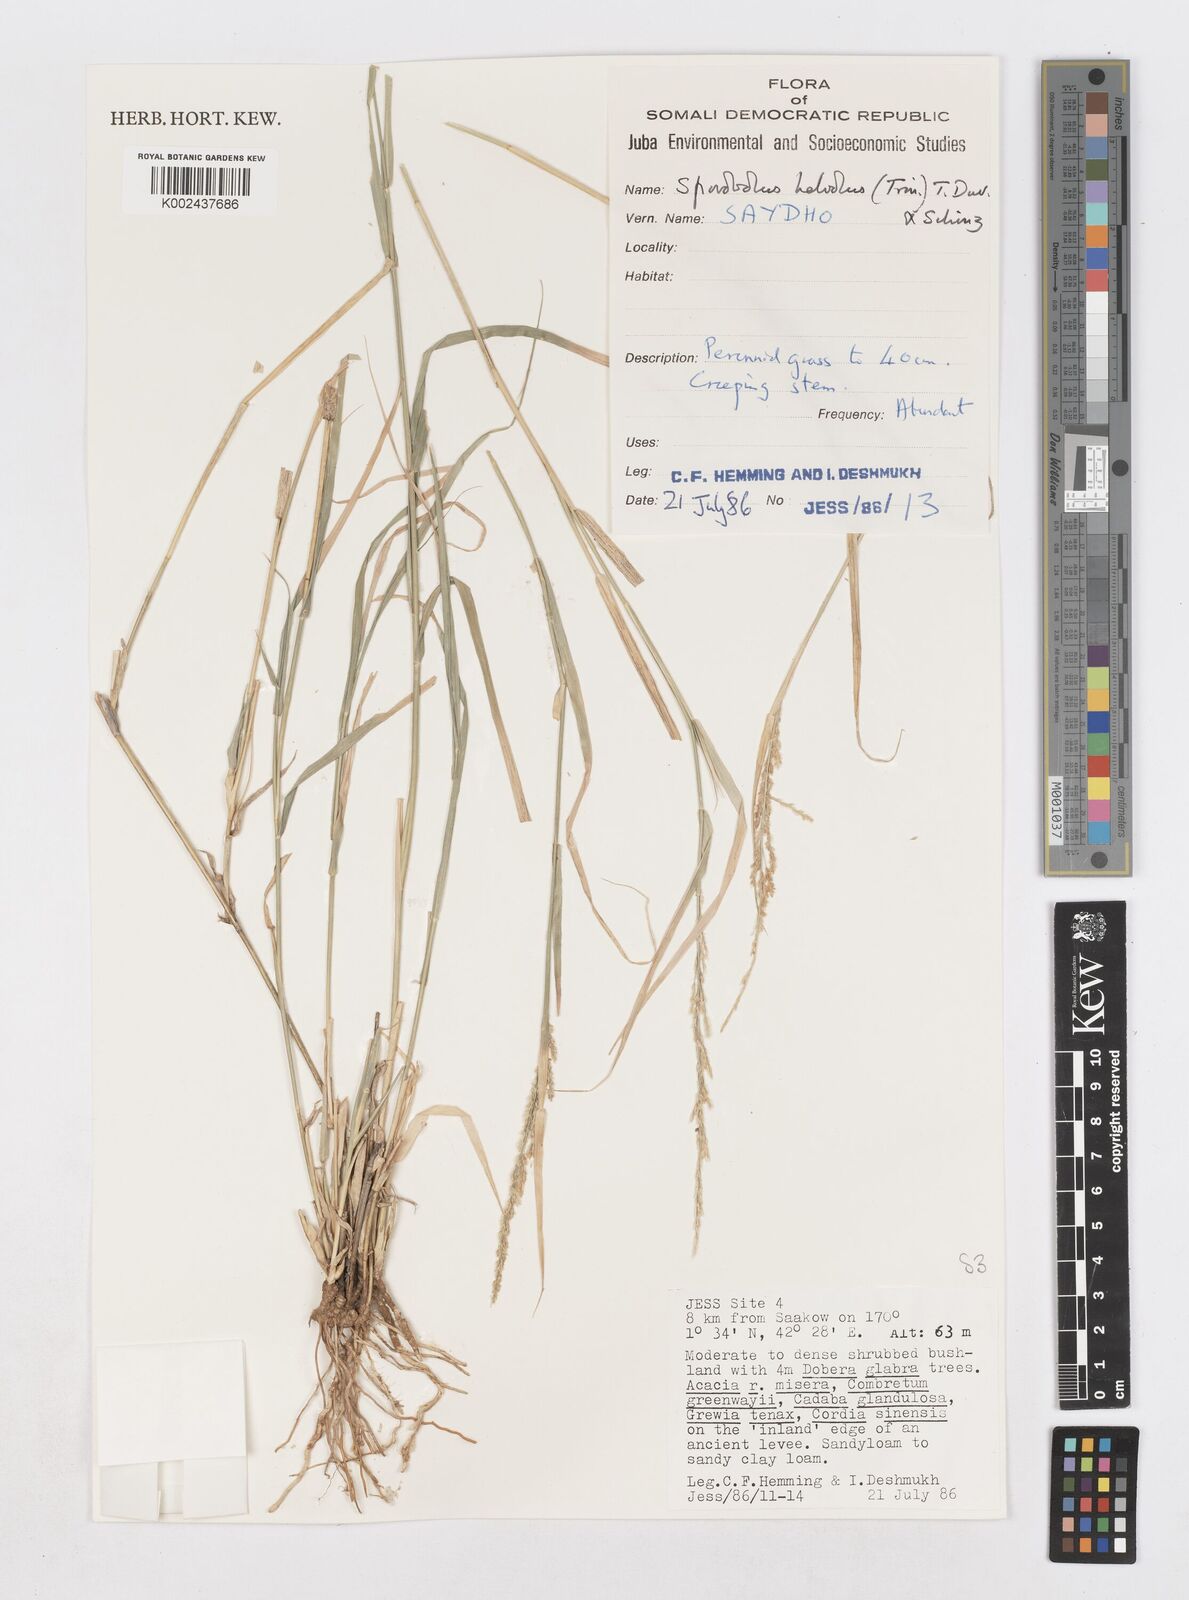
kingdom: Plantae
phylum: Tracheophyta
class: Liliopsida
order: Poales
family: Poaceae
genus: Sporobolus
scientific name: Sporobolus helvolus
